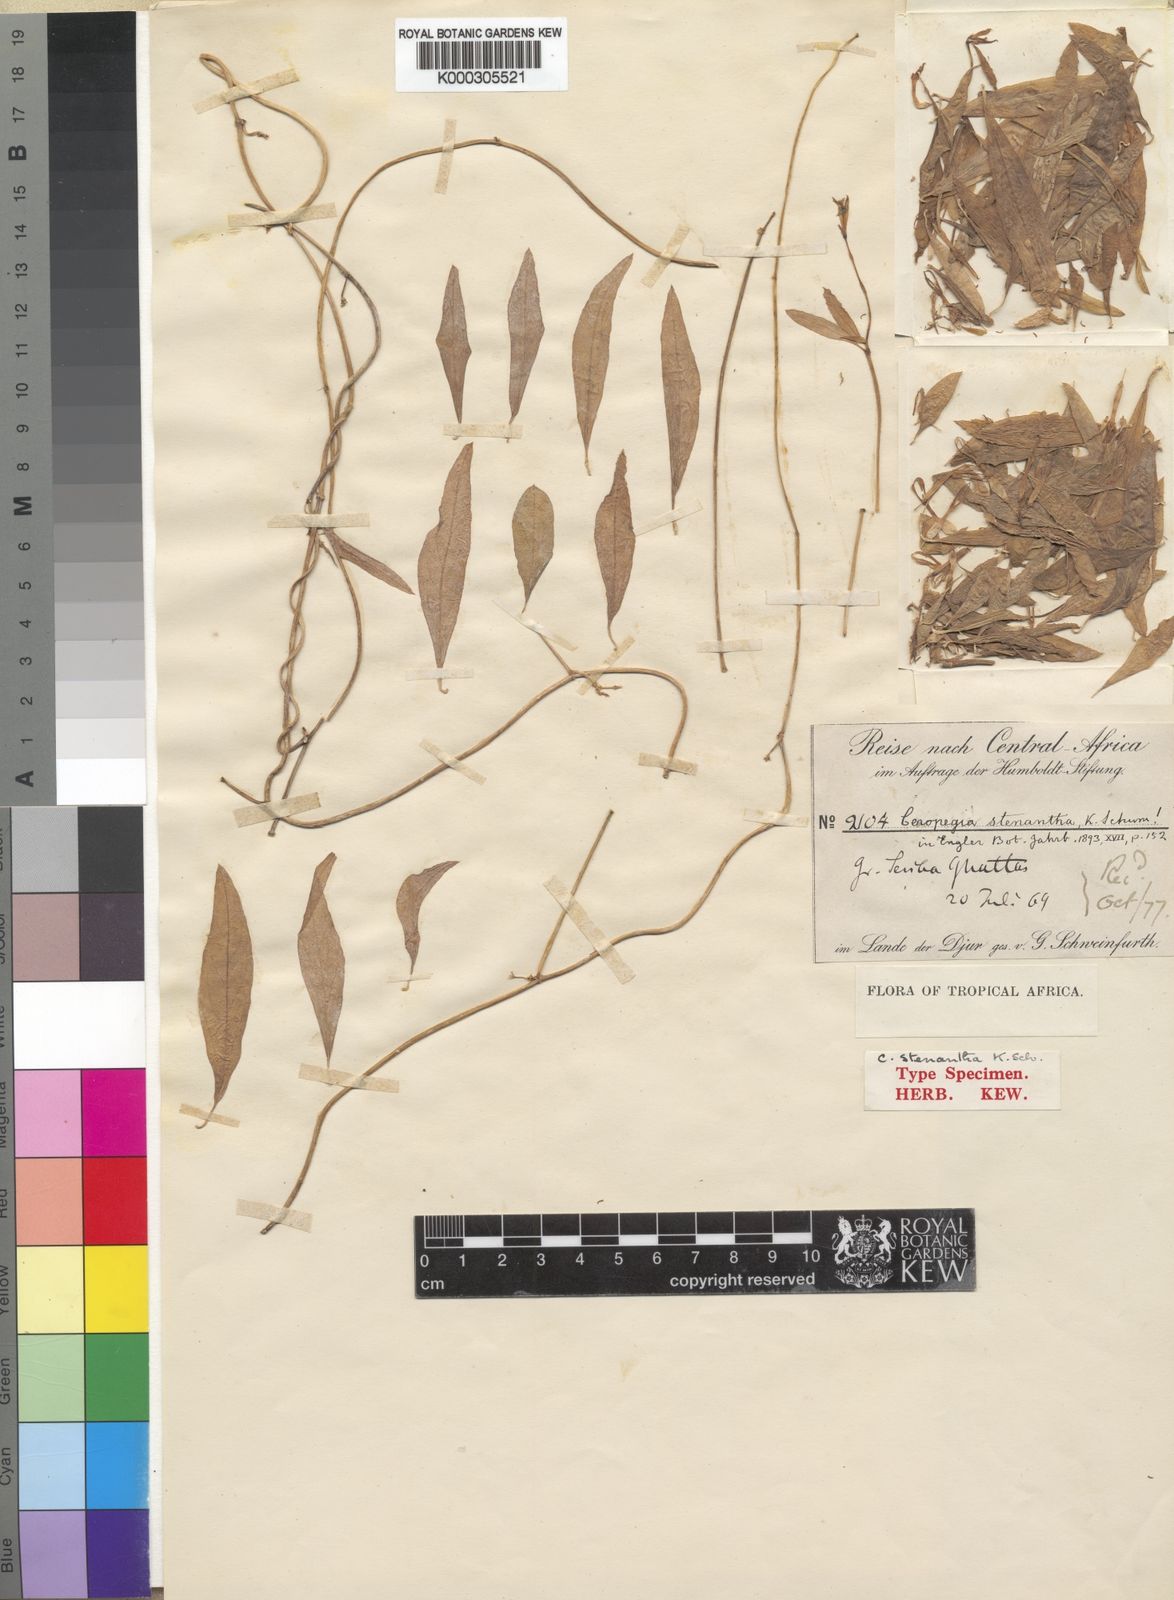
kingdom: Plantae
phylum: Tracheophyta
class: Magnoliopsida
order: Gentianales
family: Apocynaceae
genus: Ceropegia
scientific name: Ceropegia stenantha
